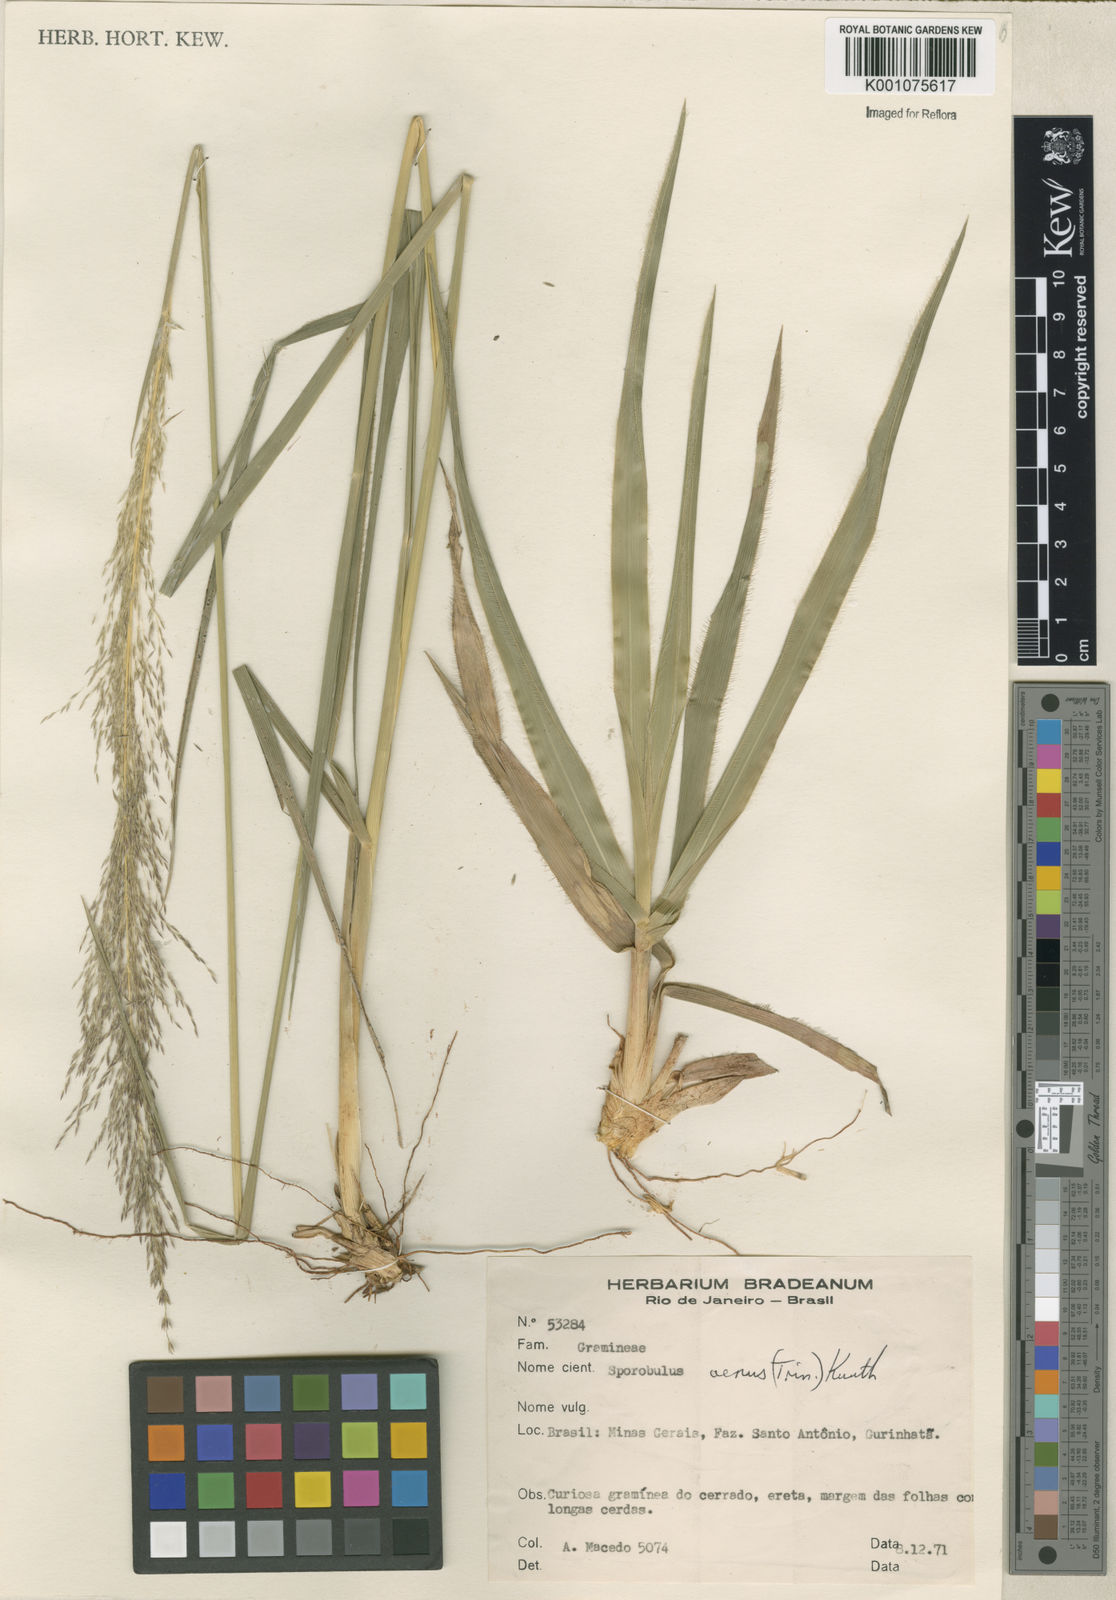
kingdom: Plantae
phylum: Tracheophyta
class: Liliopsida
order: Poales
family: Poaceae
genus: Sporobolus
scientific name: Sporobolus
